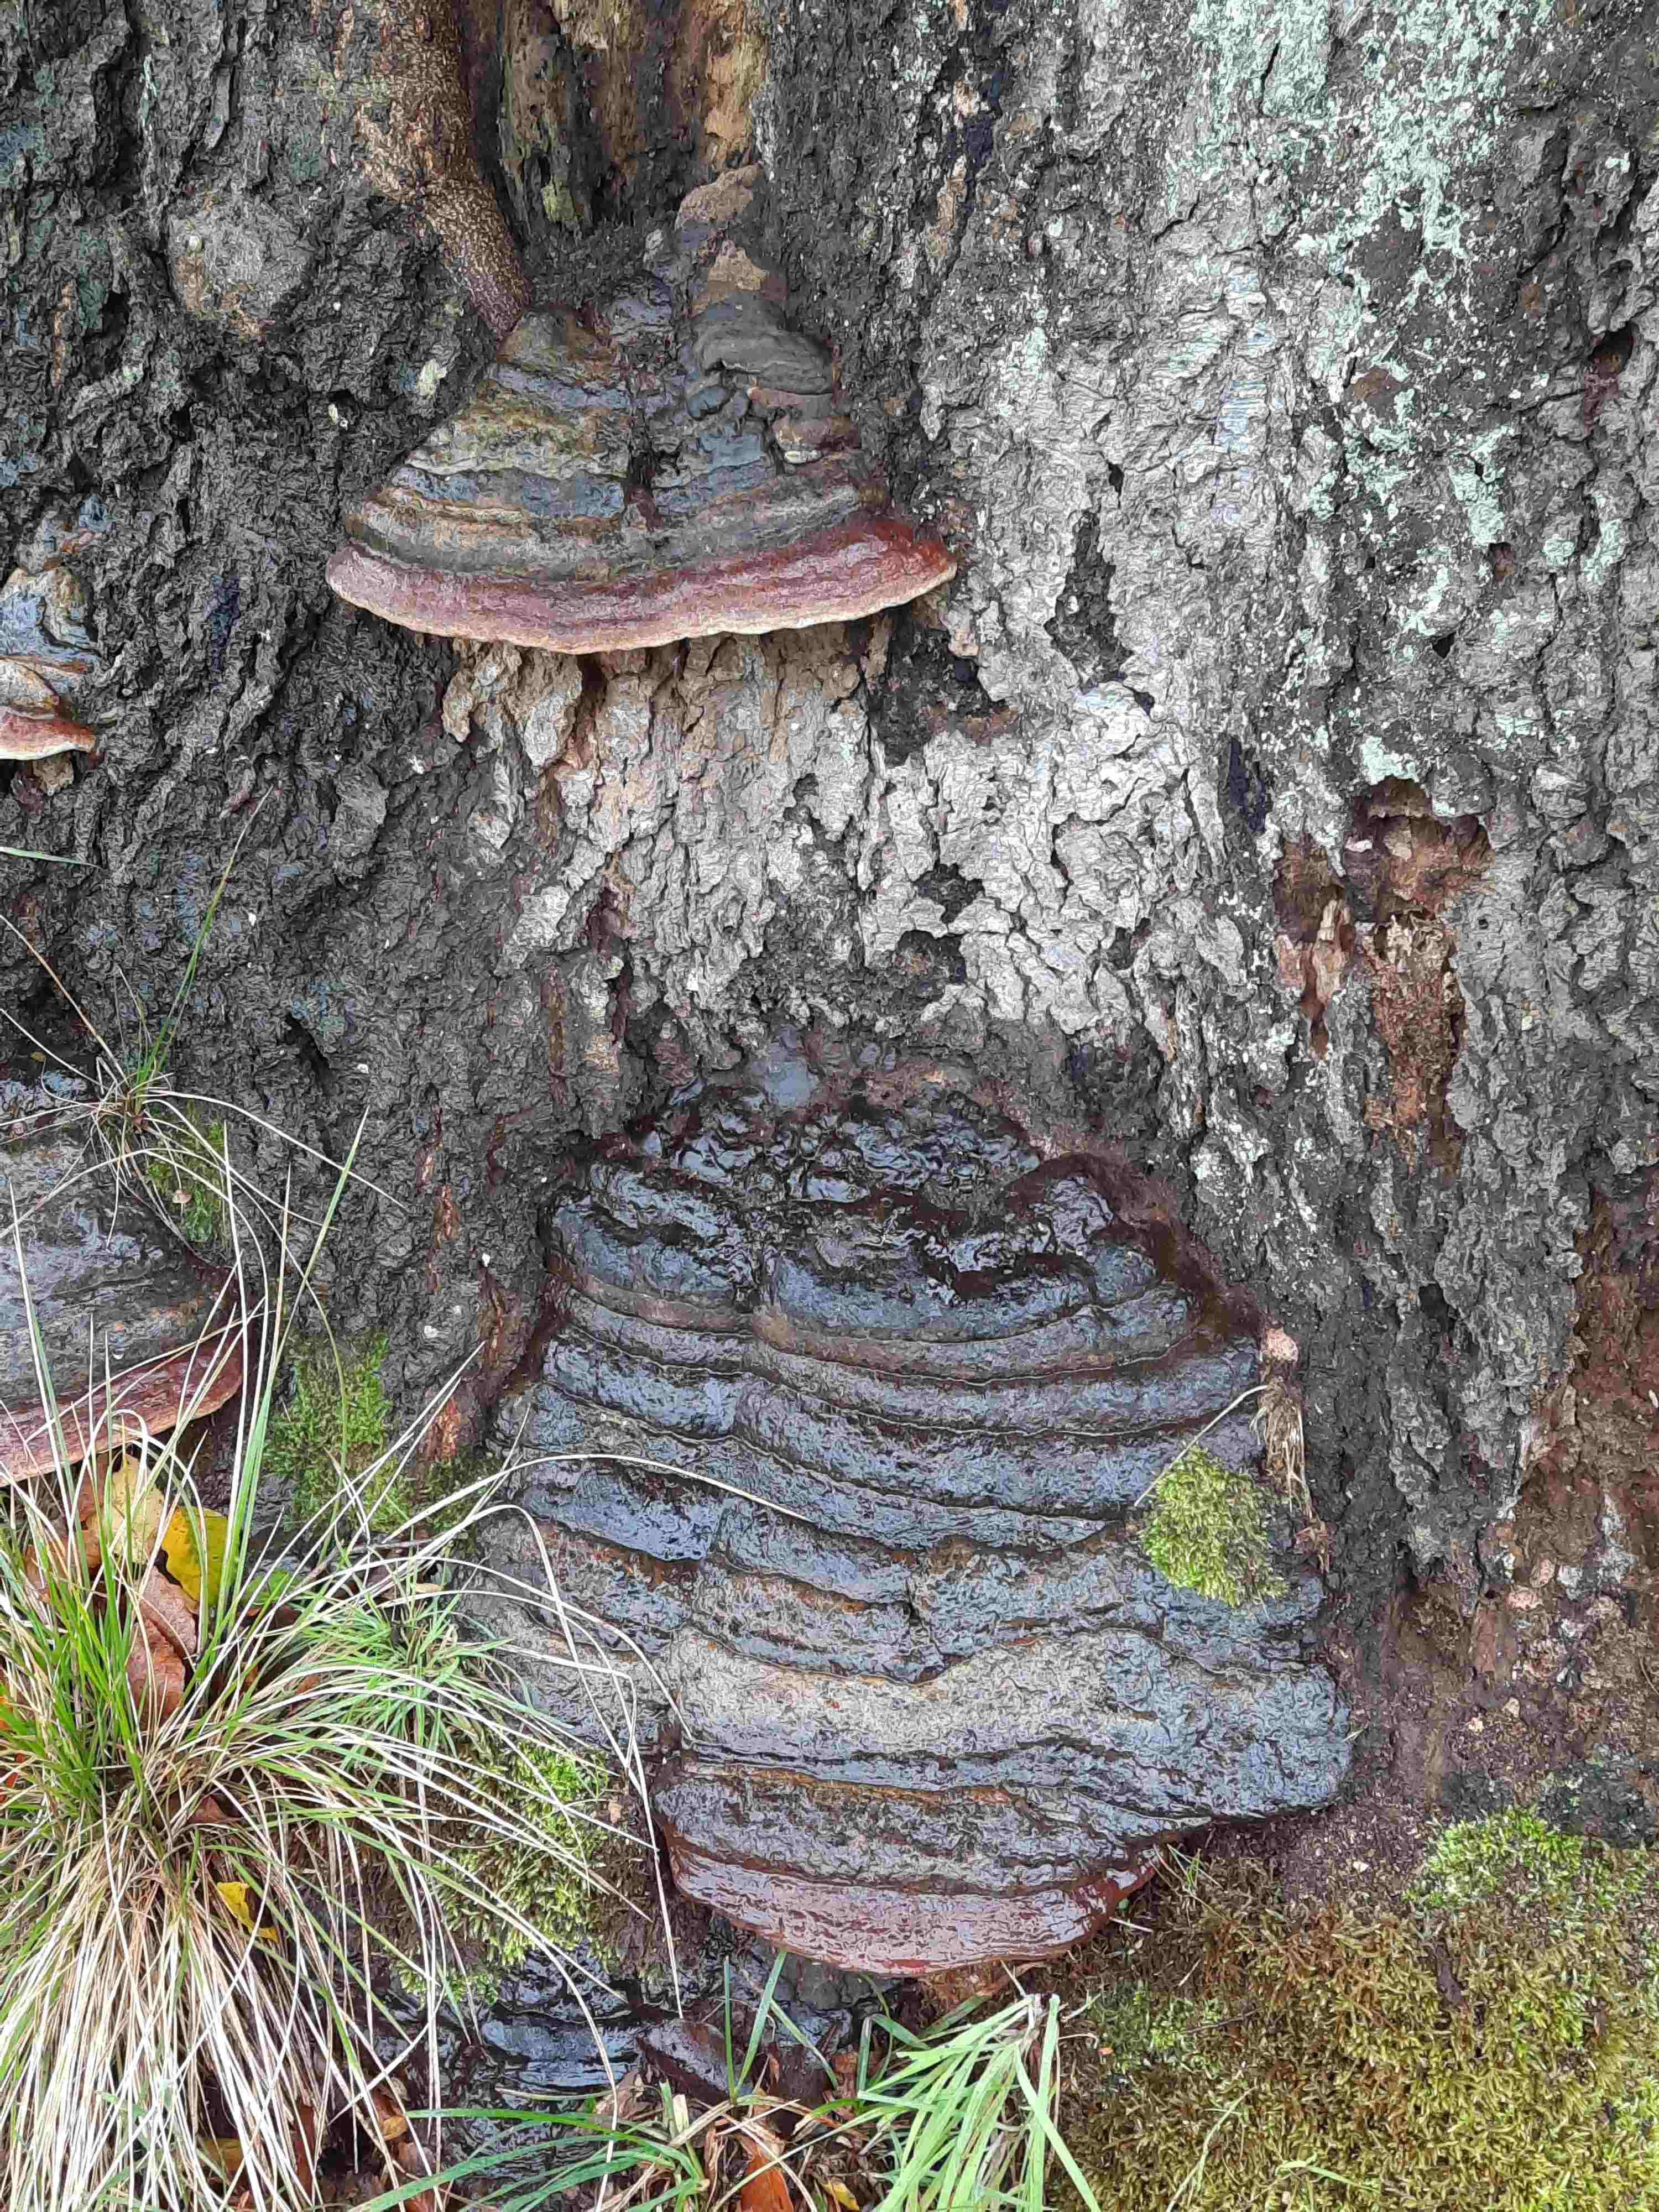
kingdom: Fungi
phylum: Basidiomycota
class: Agaricomycetes
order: Polyporales
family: Polyporaceae
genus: Ganoderma
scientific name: Ganoderma pfeifferi
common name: kobberrød lakporesvamp
